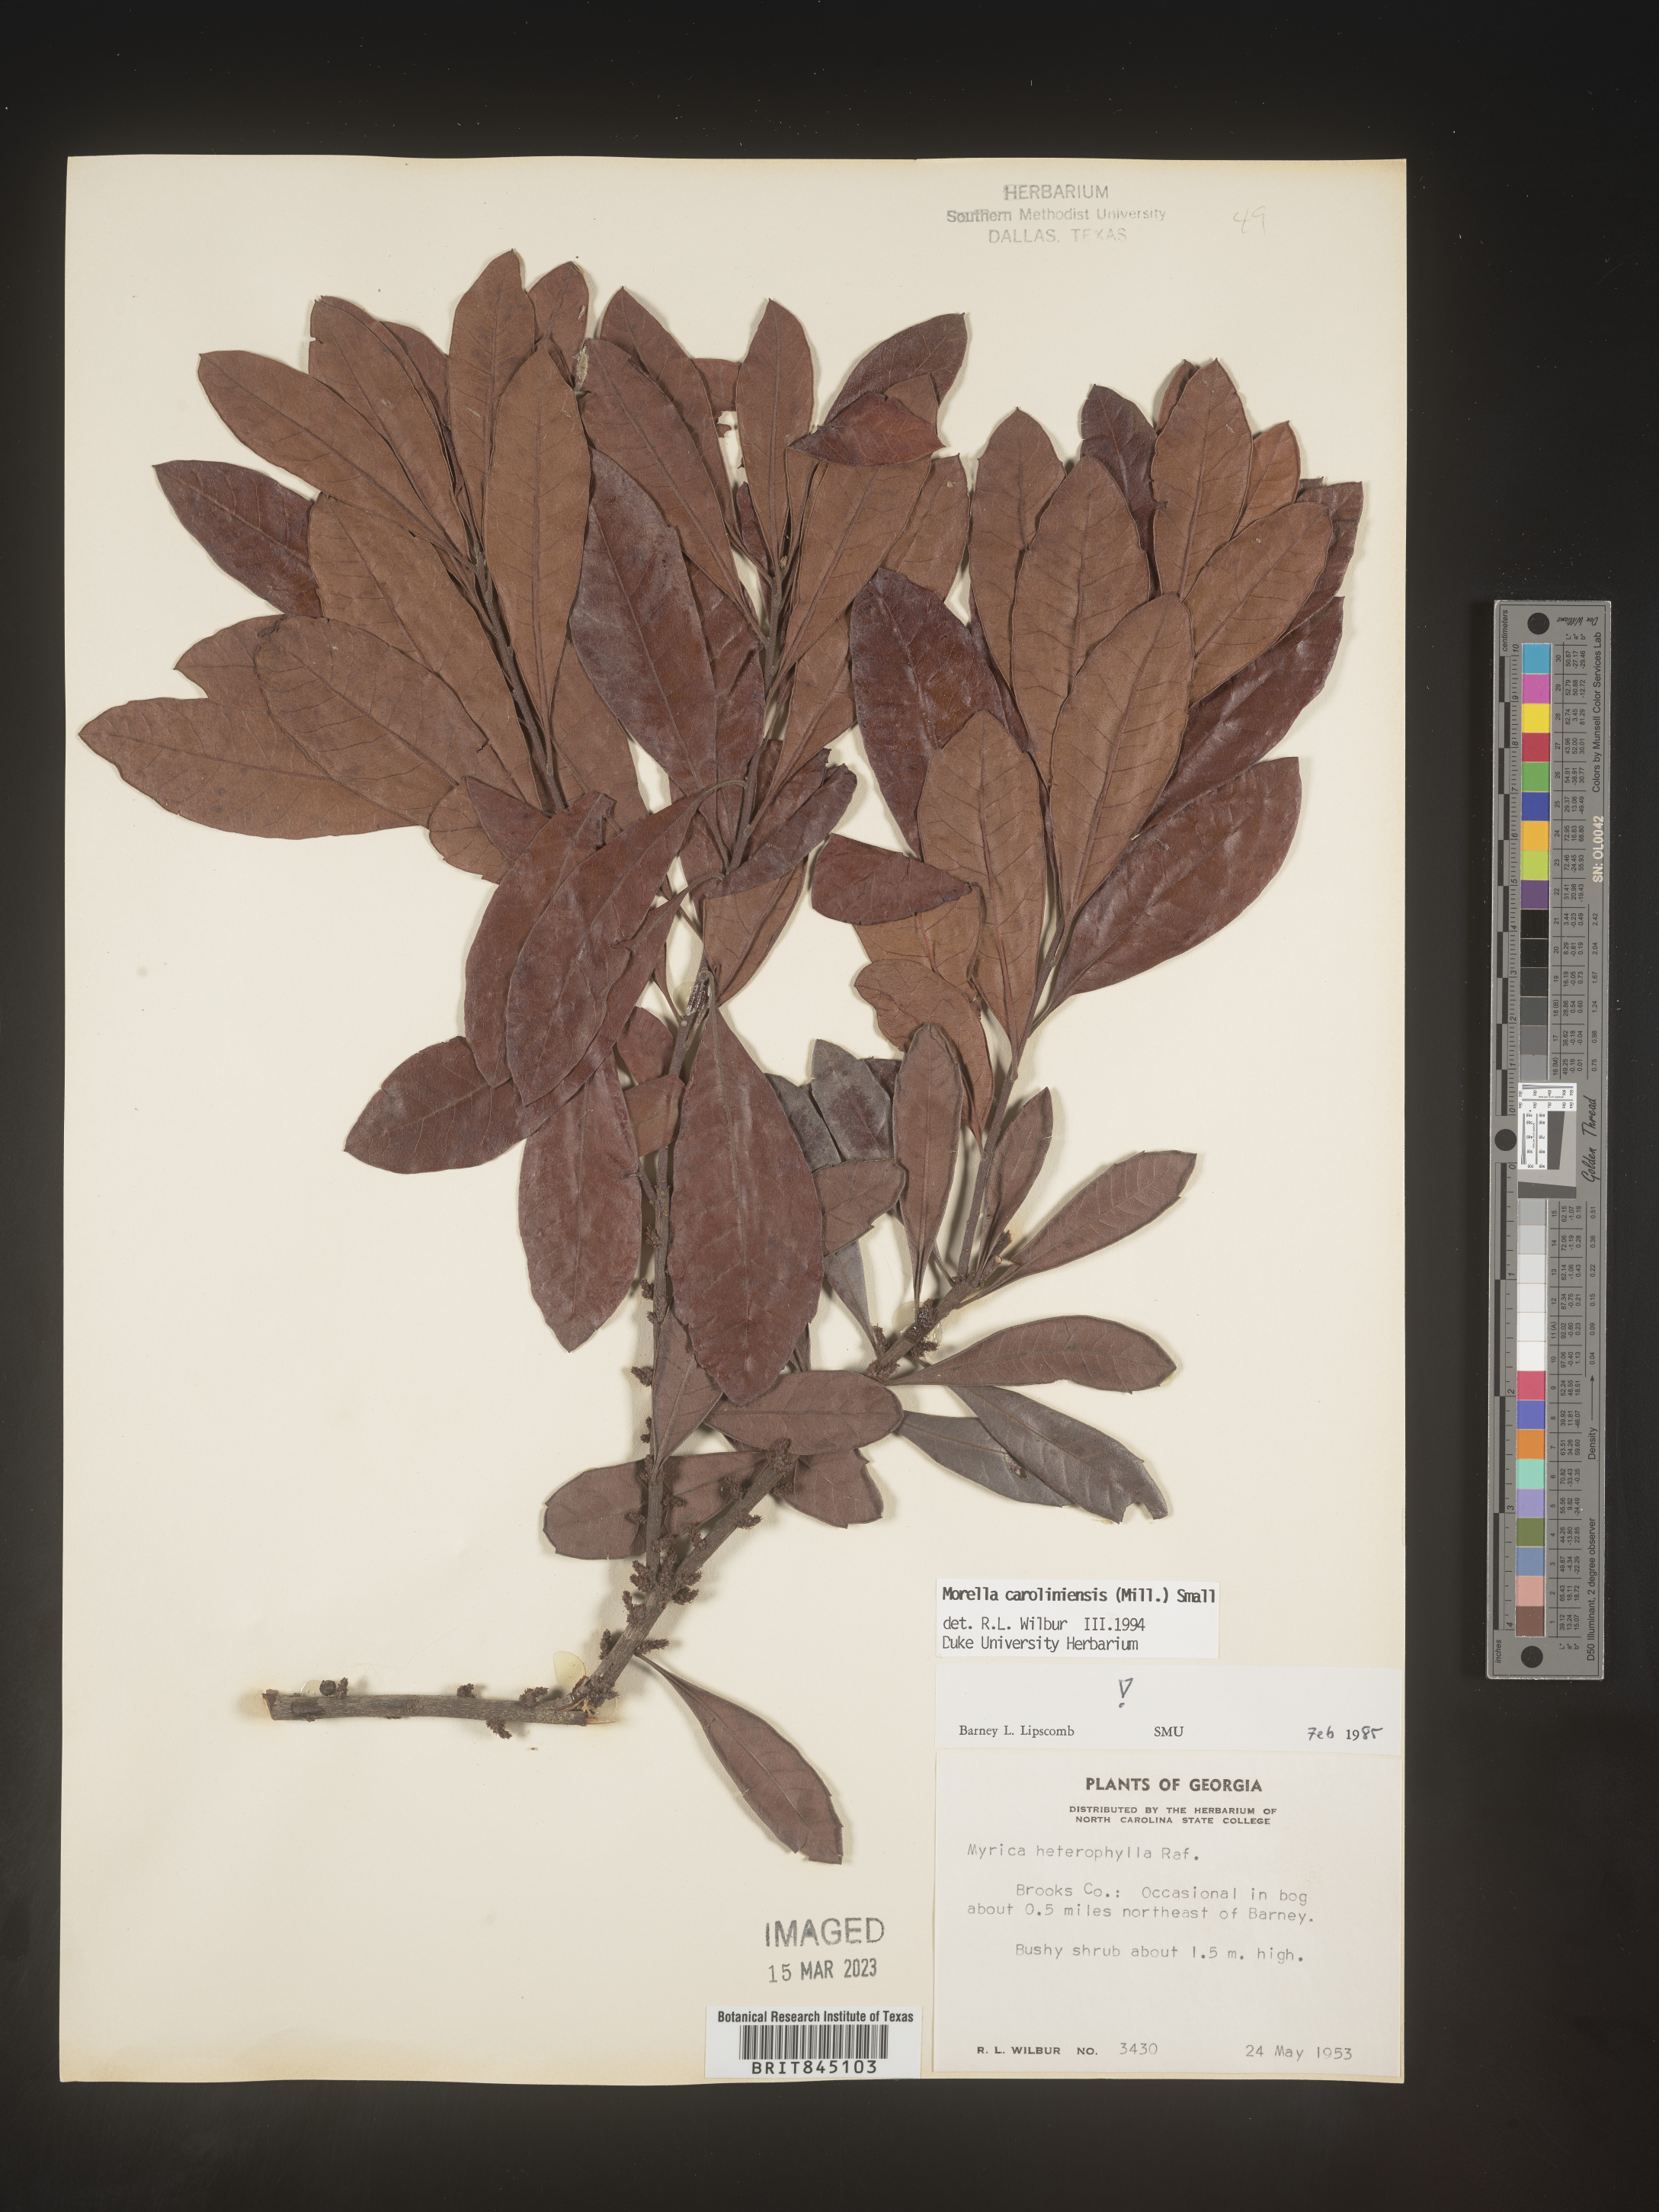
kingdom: Plantae
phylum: Tracheophyta
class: Magnoliopsida
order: Fagales
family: Myricaceae
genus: Morella
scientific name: Morella caroliniensis
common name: Evergreen bayberry
